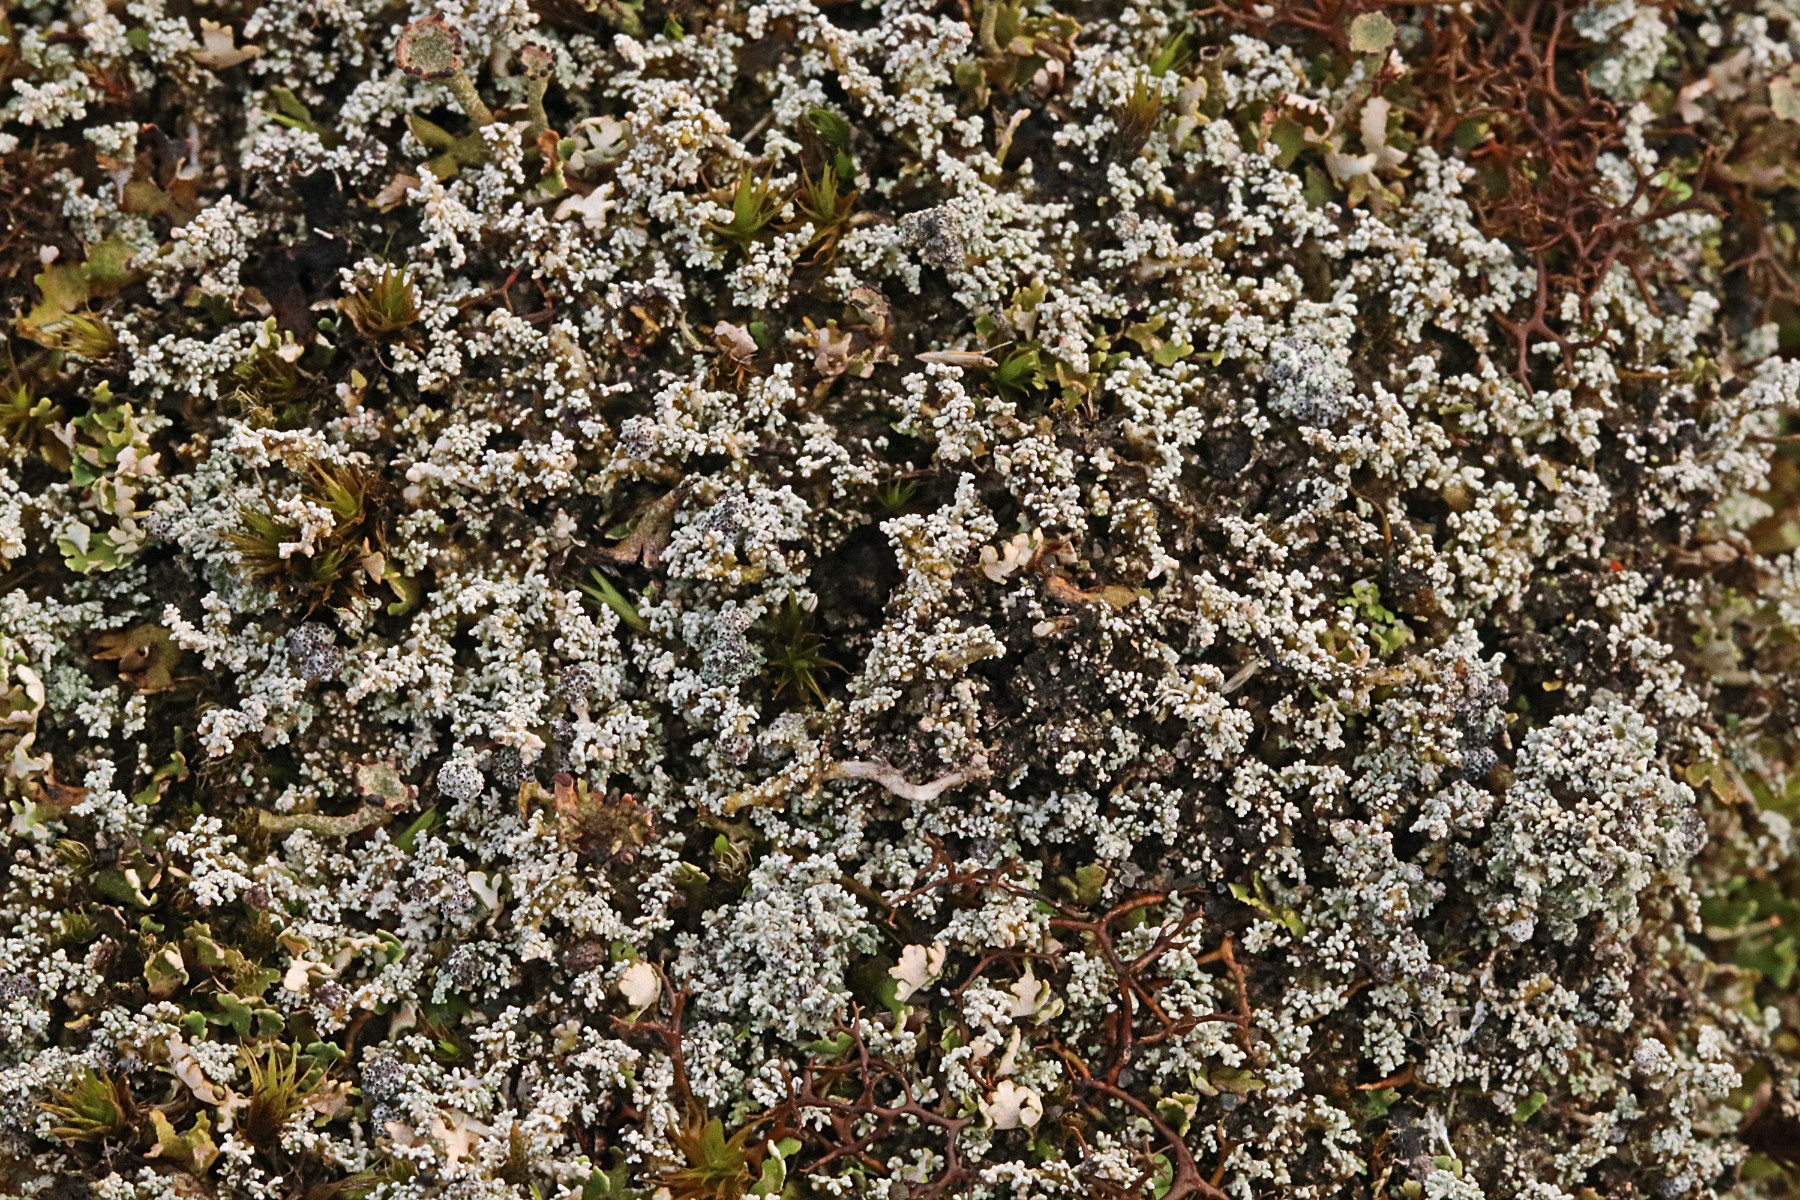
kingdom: Fungi
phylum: Ascomycota
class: Lecanoromycetes
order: Lecanorales
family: Stereocaulaceae
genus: Stereocaulon
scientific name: Stereocaulon saxatile
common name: klit-korallav
